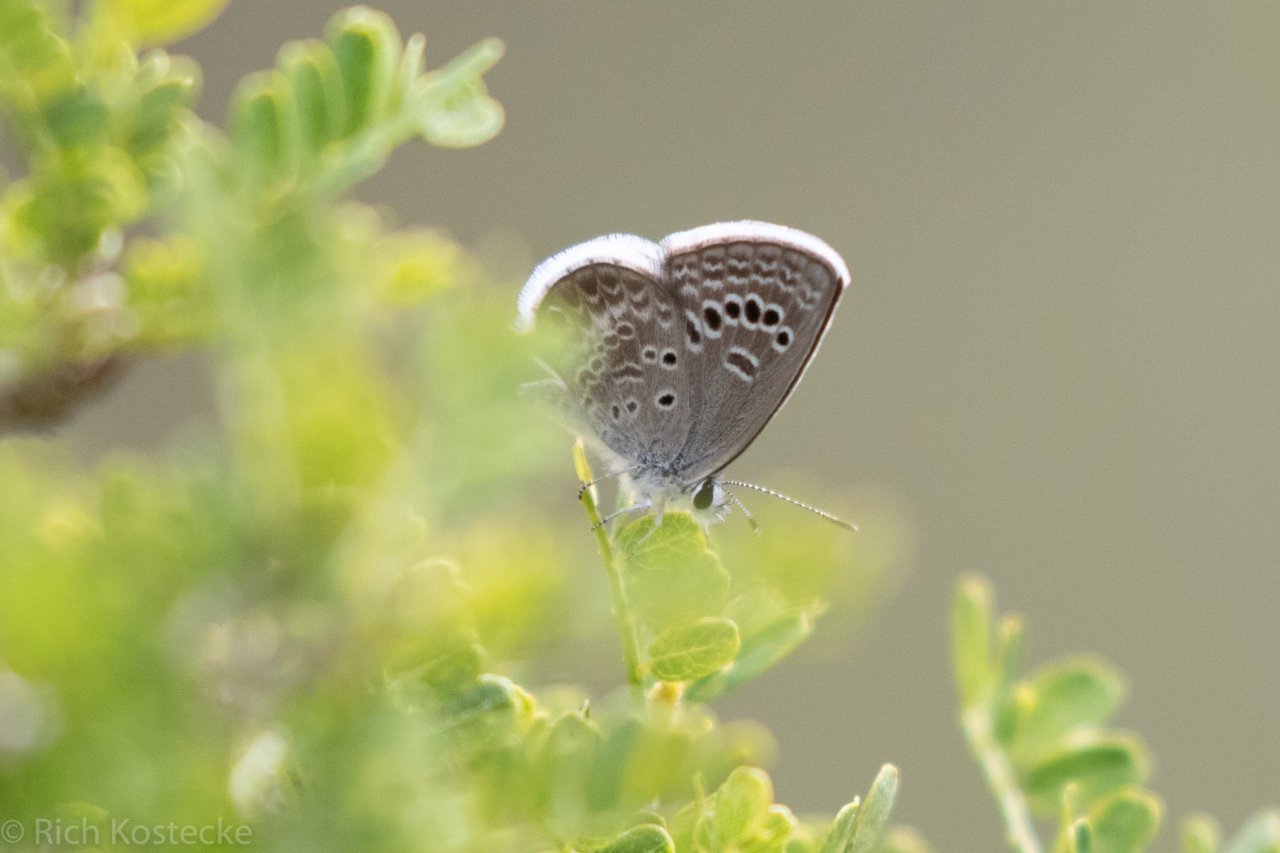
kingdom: Animalia
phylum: Arthropoda
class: Insecta
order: Lepidoptera
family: Lycaenidae
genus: Echinargus
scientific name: Echinargus isola
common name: Reakirt's Blue
